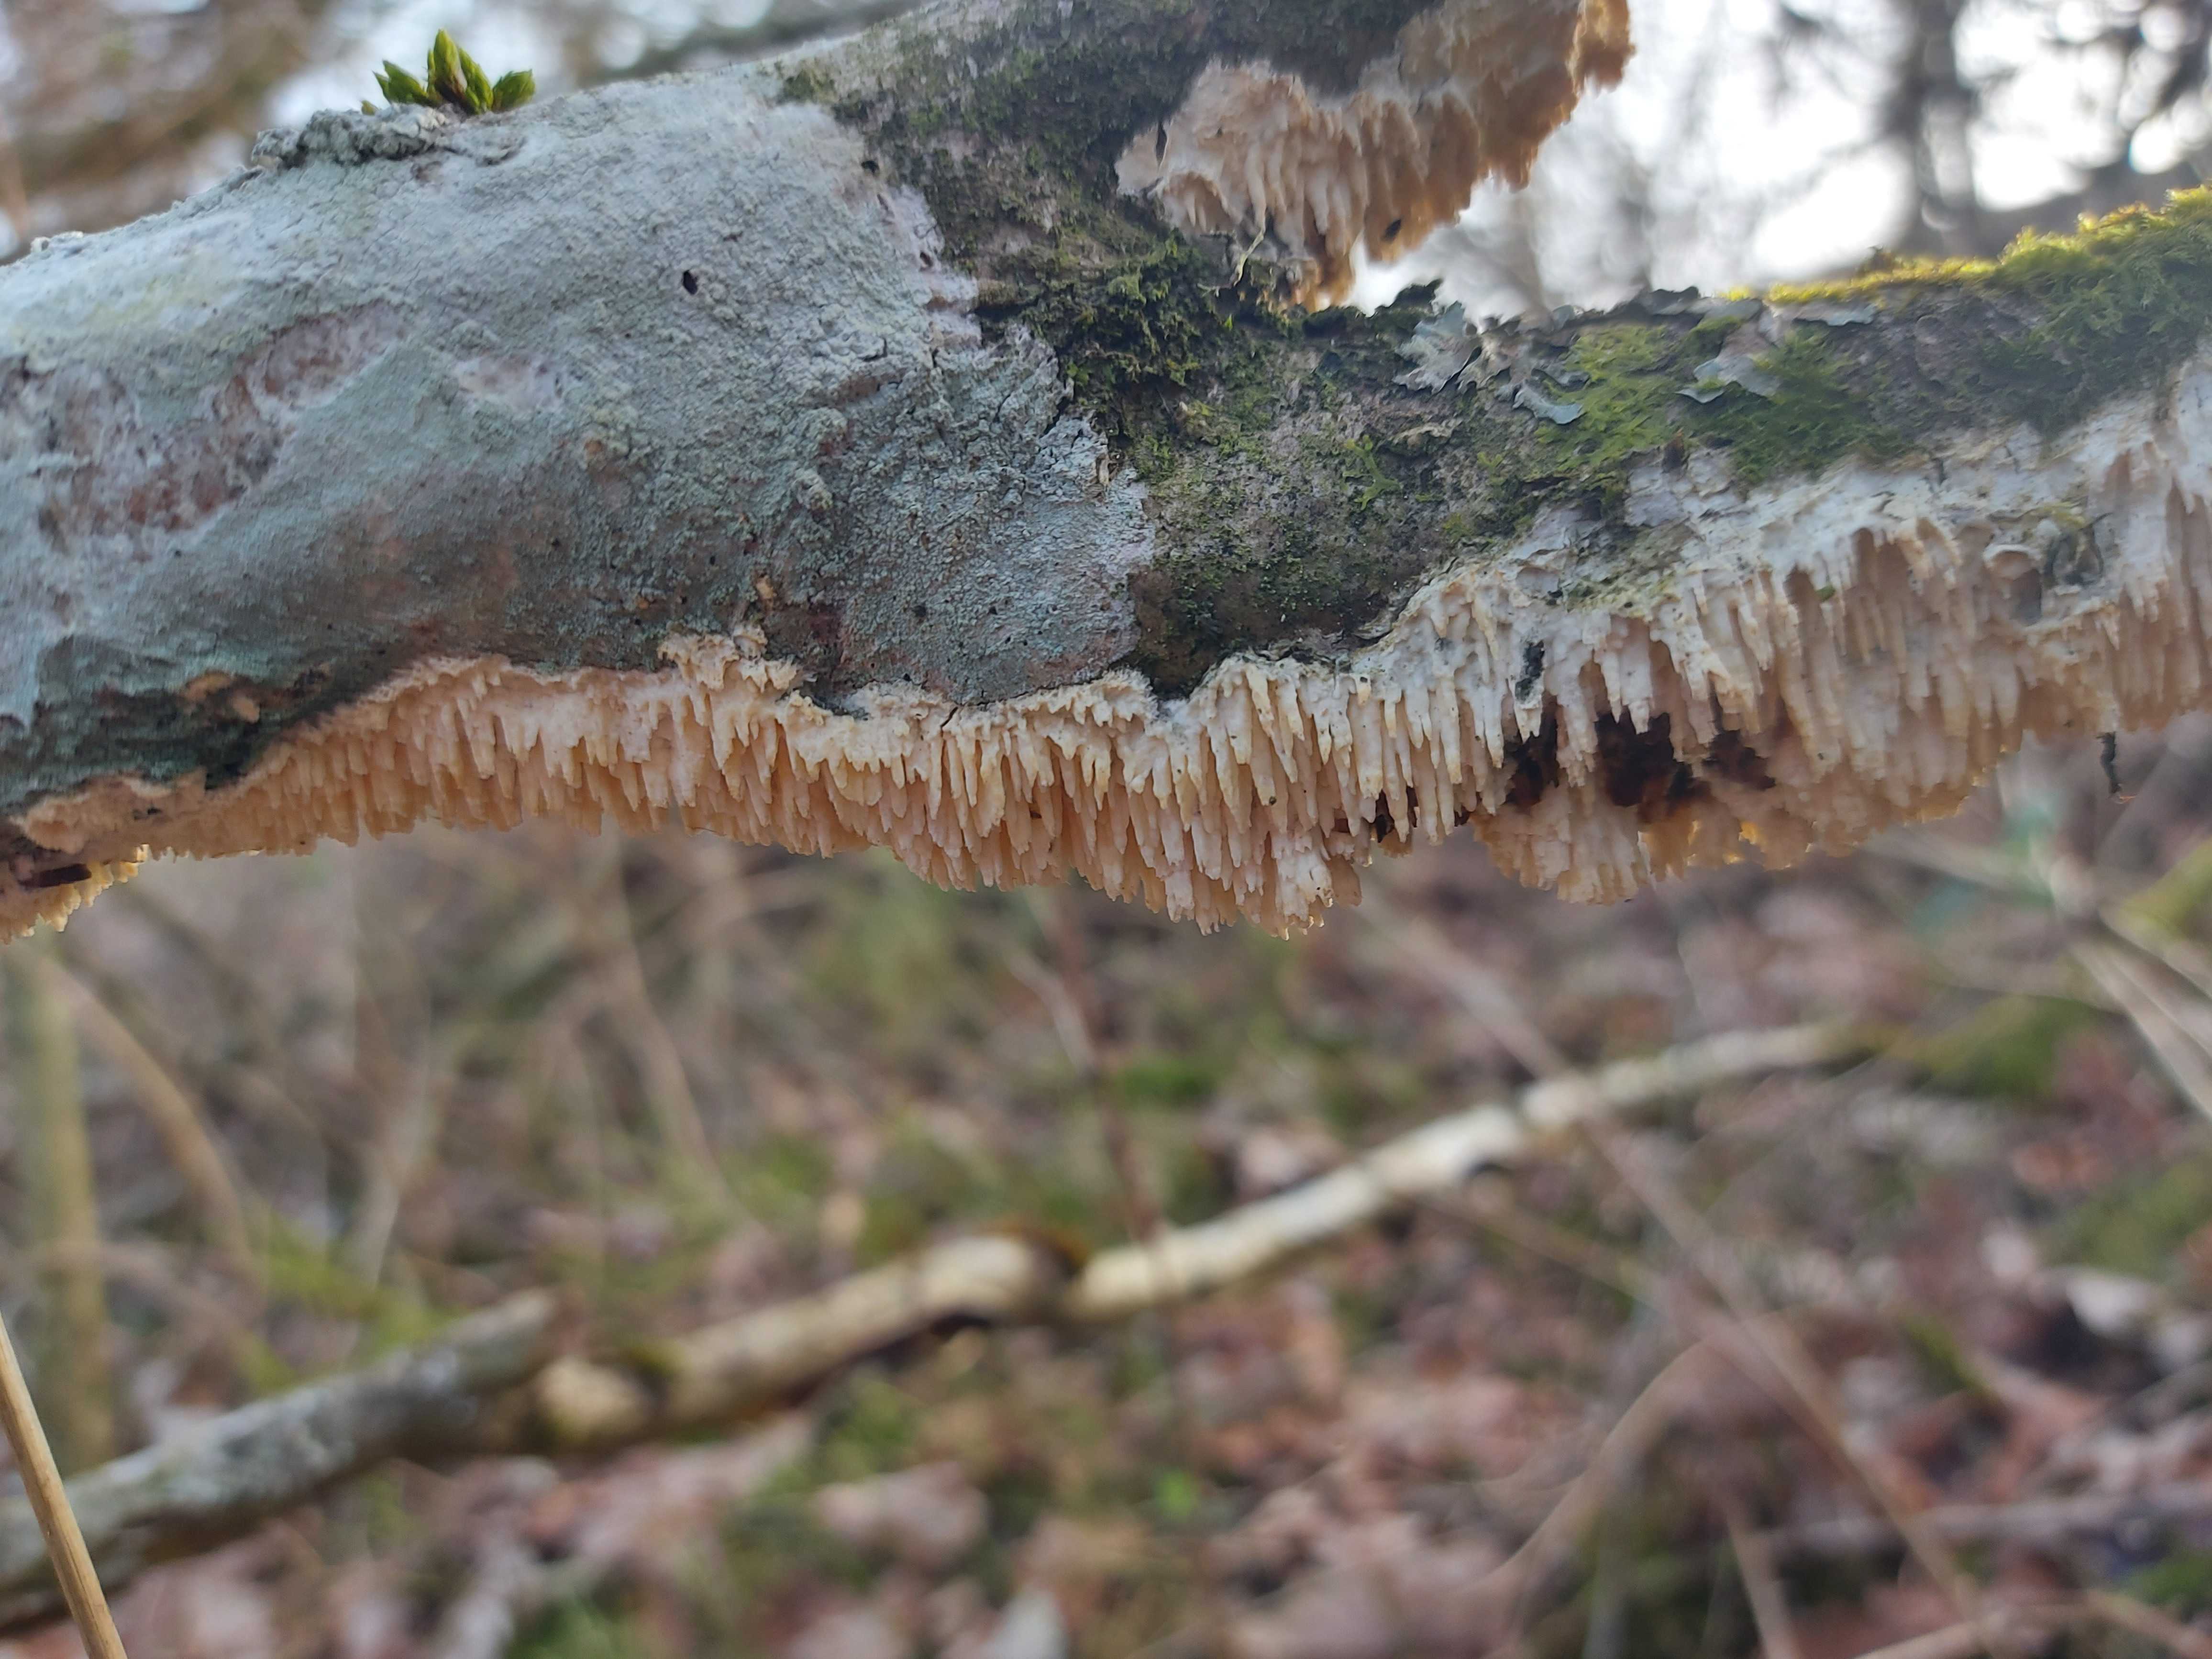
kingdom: Fungi
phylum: Basidiomycota
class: Agaricomycetes
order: Corticiales
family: Corticiaceae
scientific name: Corticiaceae
